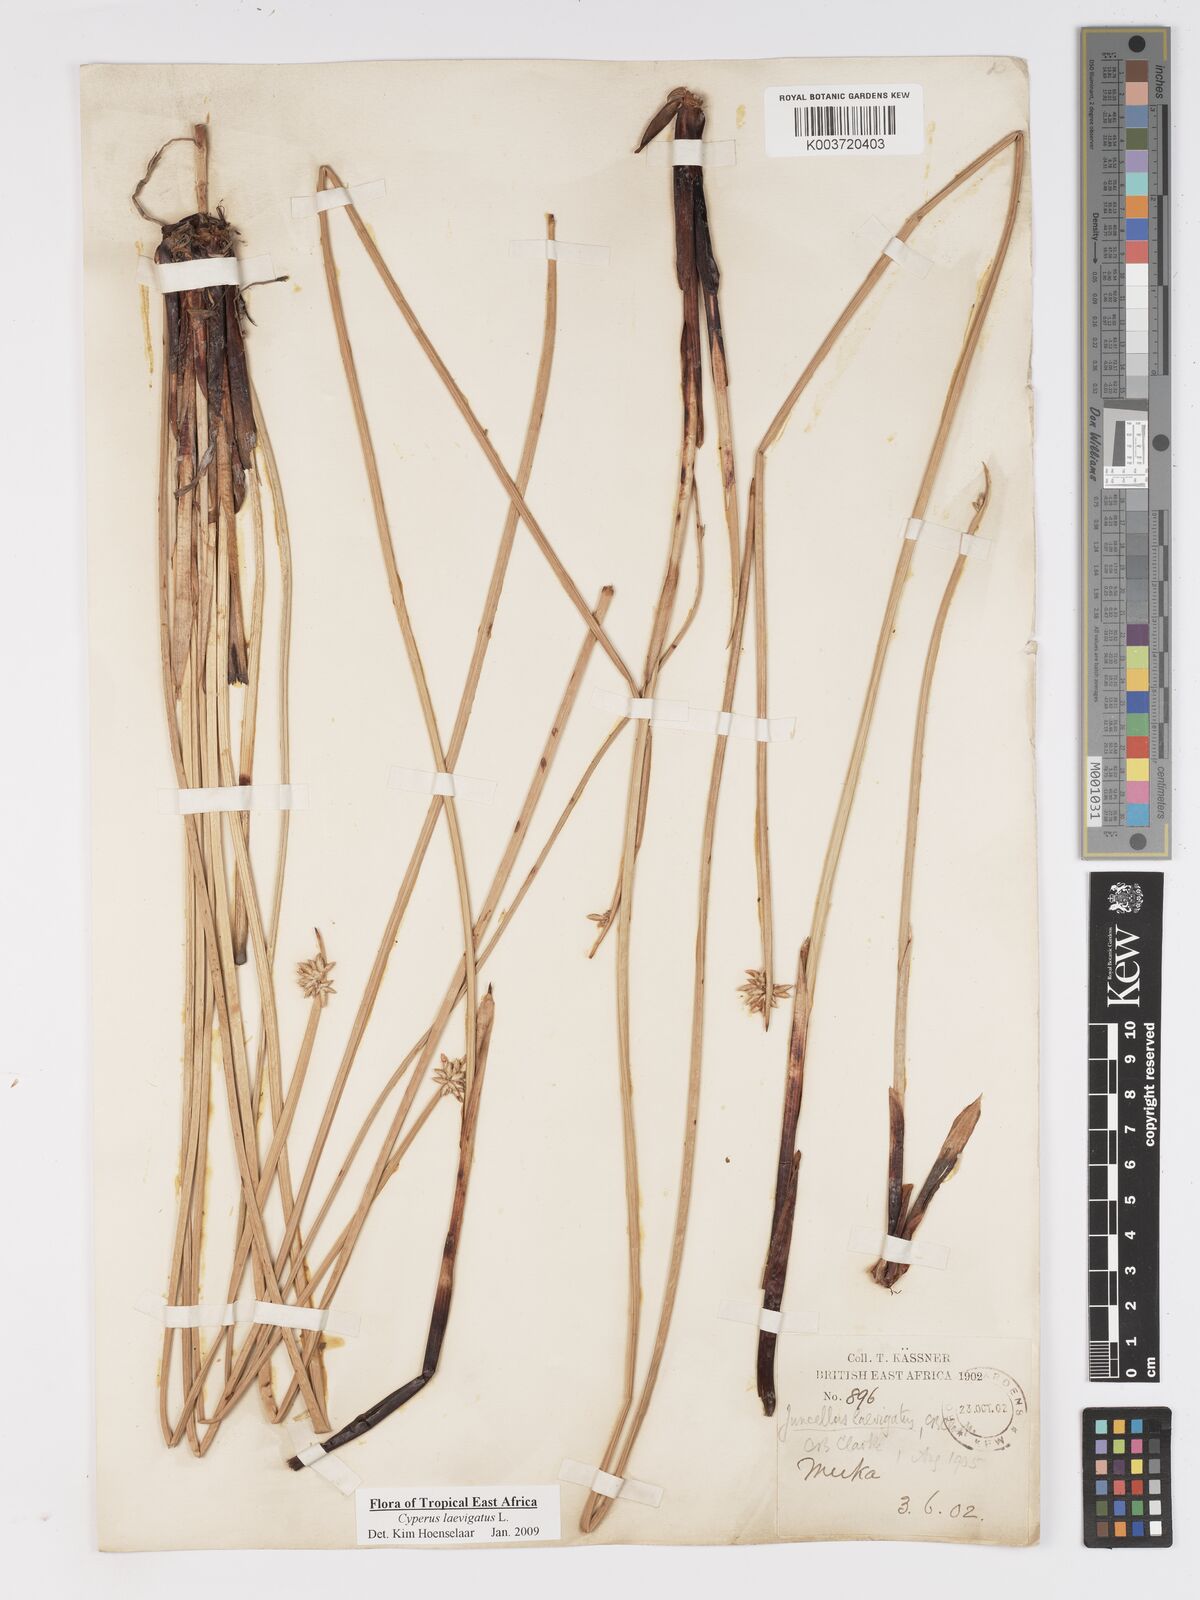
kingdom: Plantae
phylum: Tracheophyta
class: Liliopsida
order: Poales
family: Cyperaceae
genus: Cyperus
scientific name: Cyperus laevigatus
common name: Smooth flat sedge
